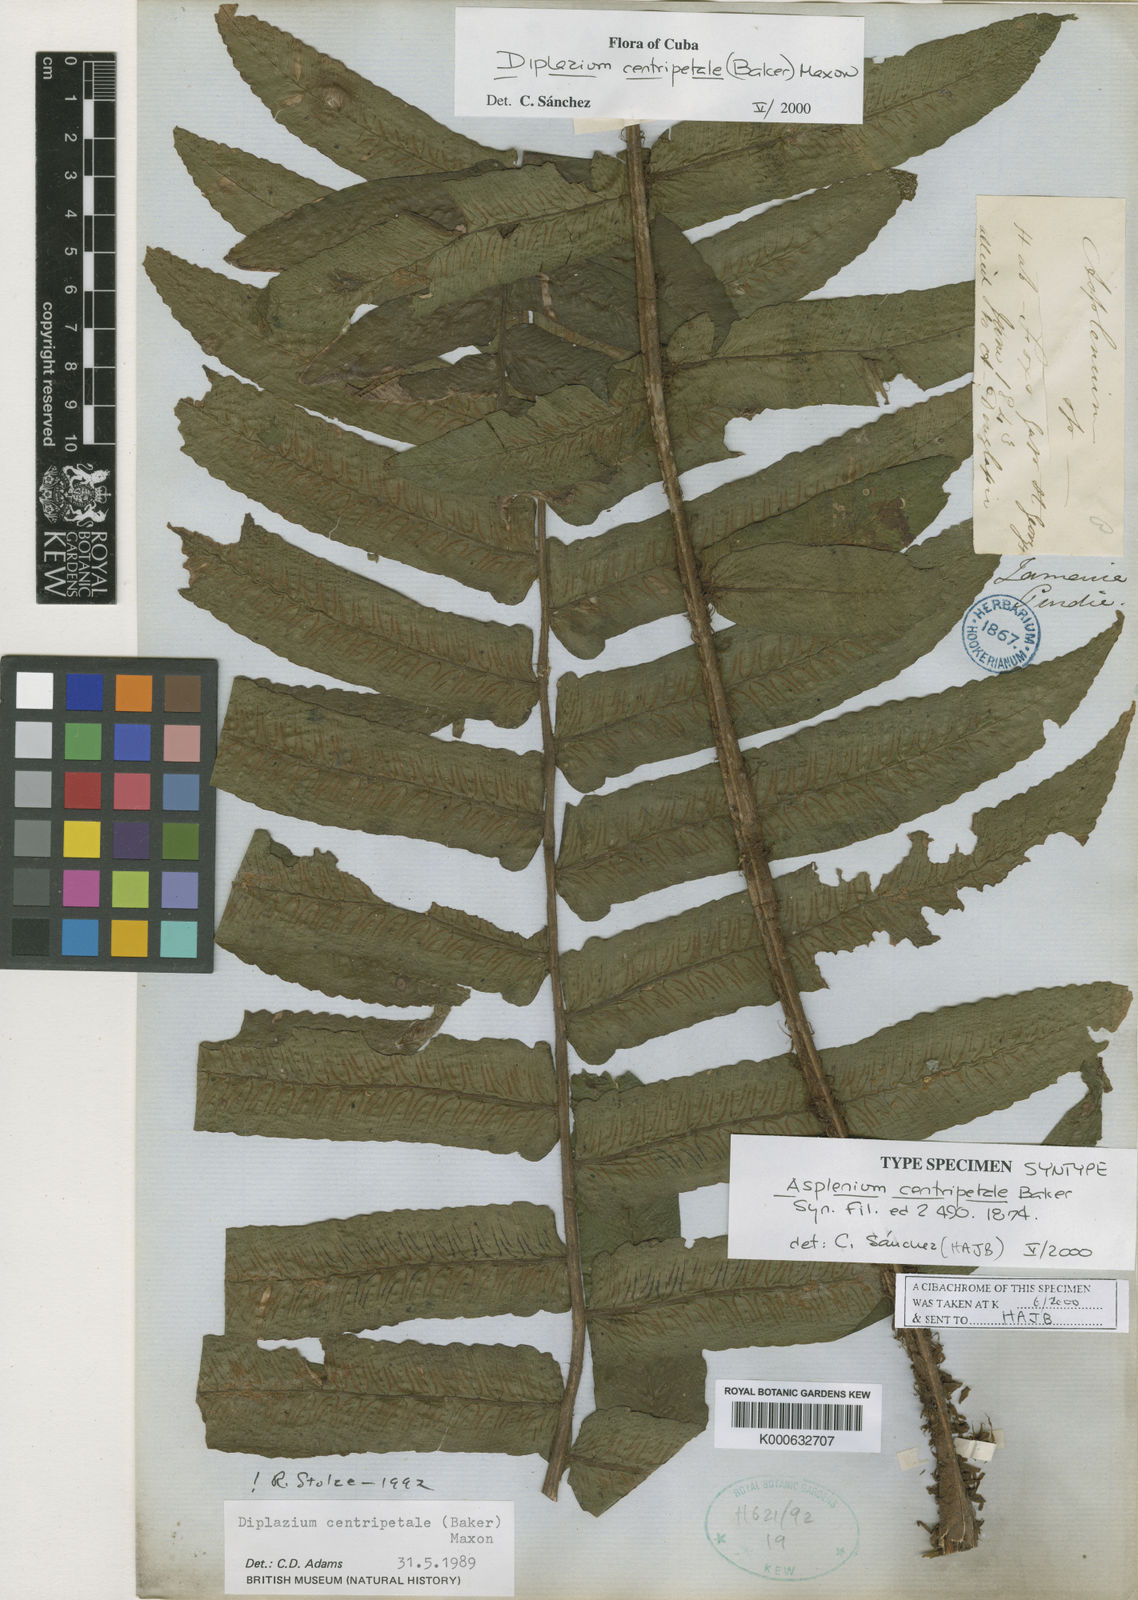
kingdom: Plantae
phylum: Tracheophyta
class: Polypodiopsida
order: Polypodiales
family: Athyriaceae
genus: Diplazium
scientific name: Diplazium centripetale
